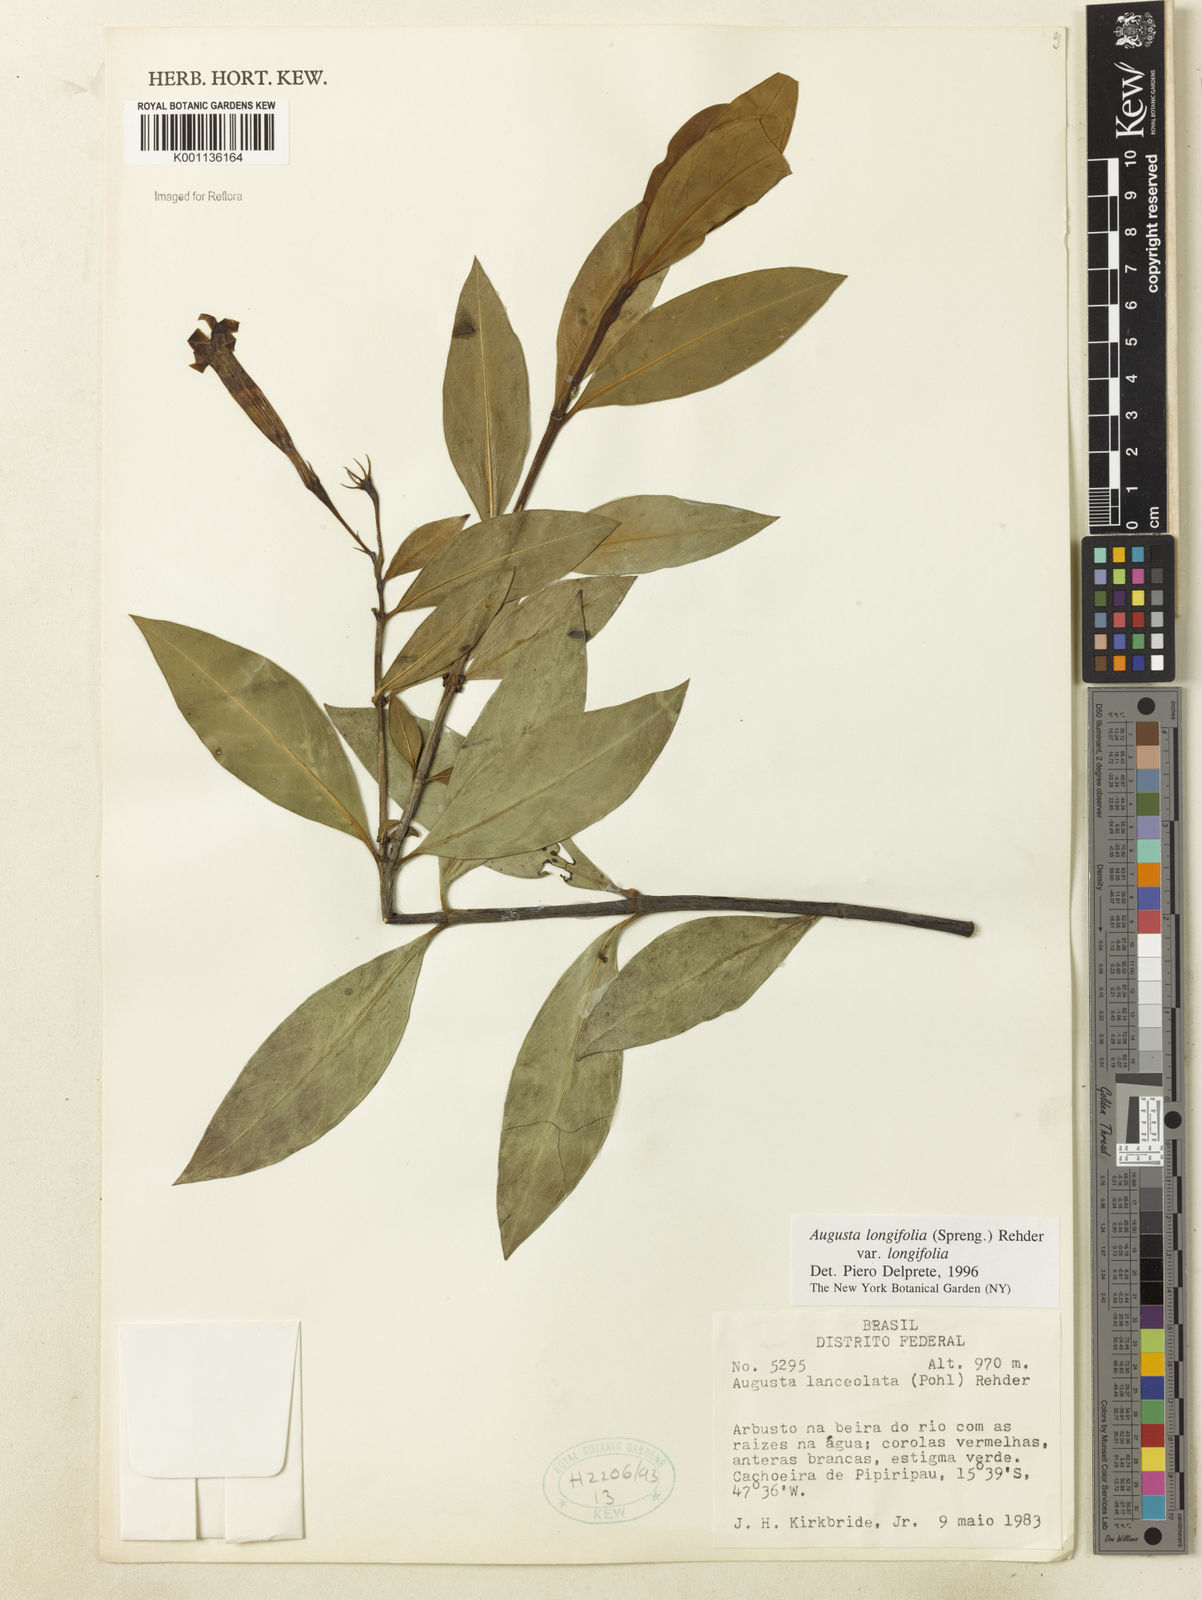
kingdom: Plantae
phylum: Tracheophyta
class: Magnoliopsida
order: Gentianales
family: Rubiaceae
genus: Augusta
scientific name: Augusta longifolia
